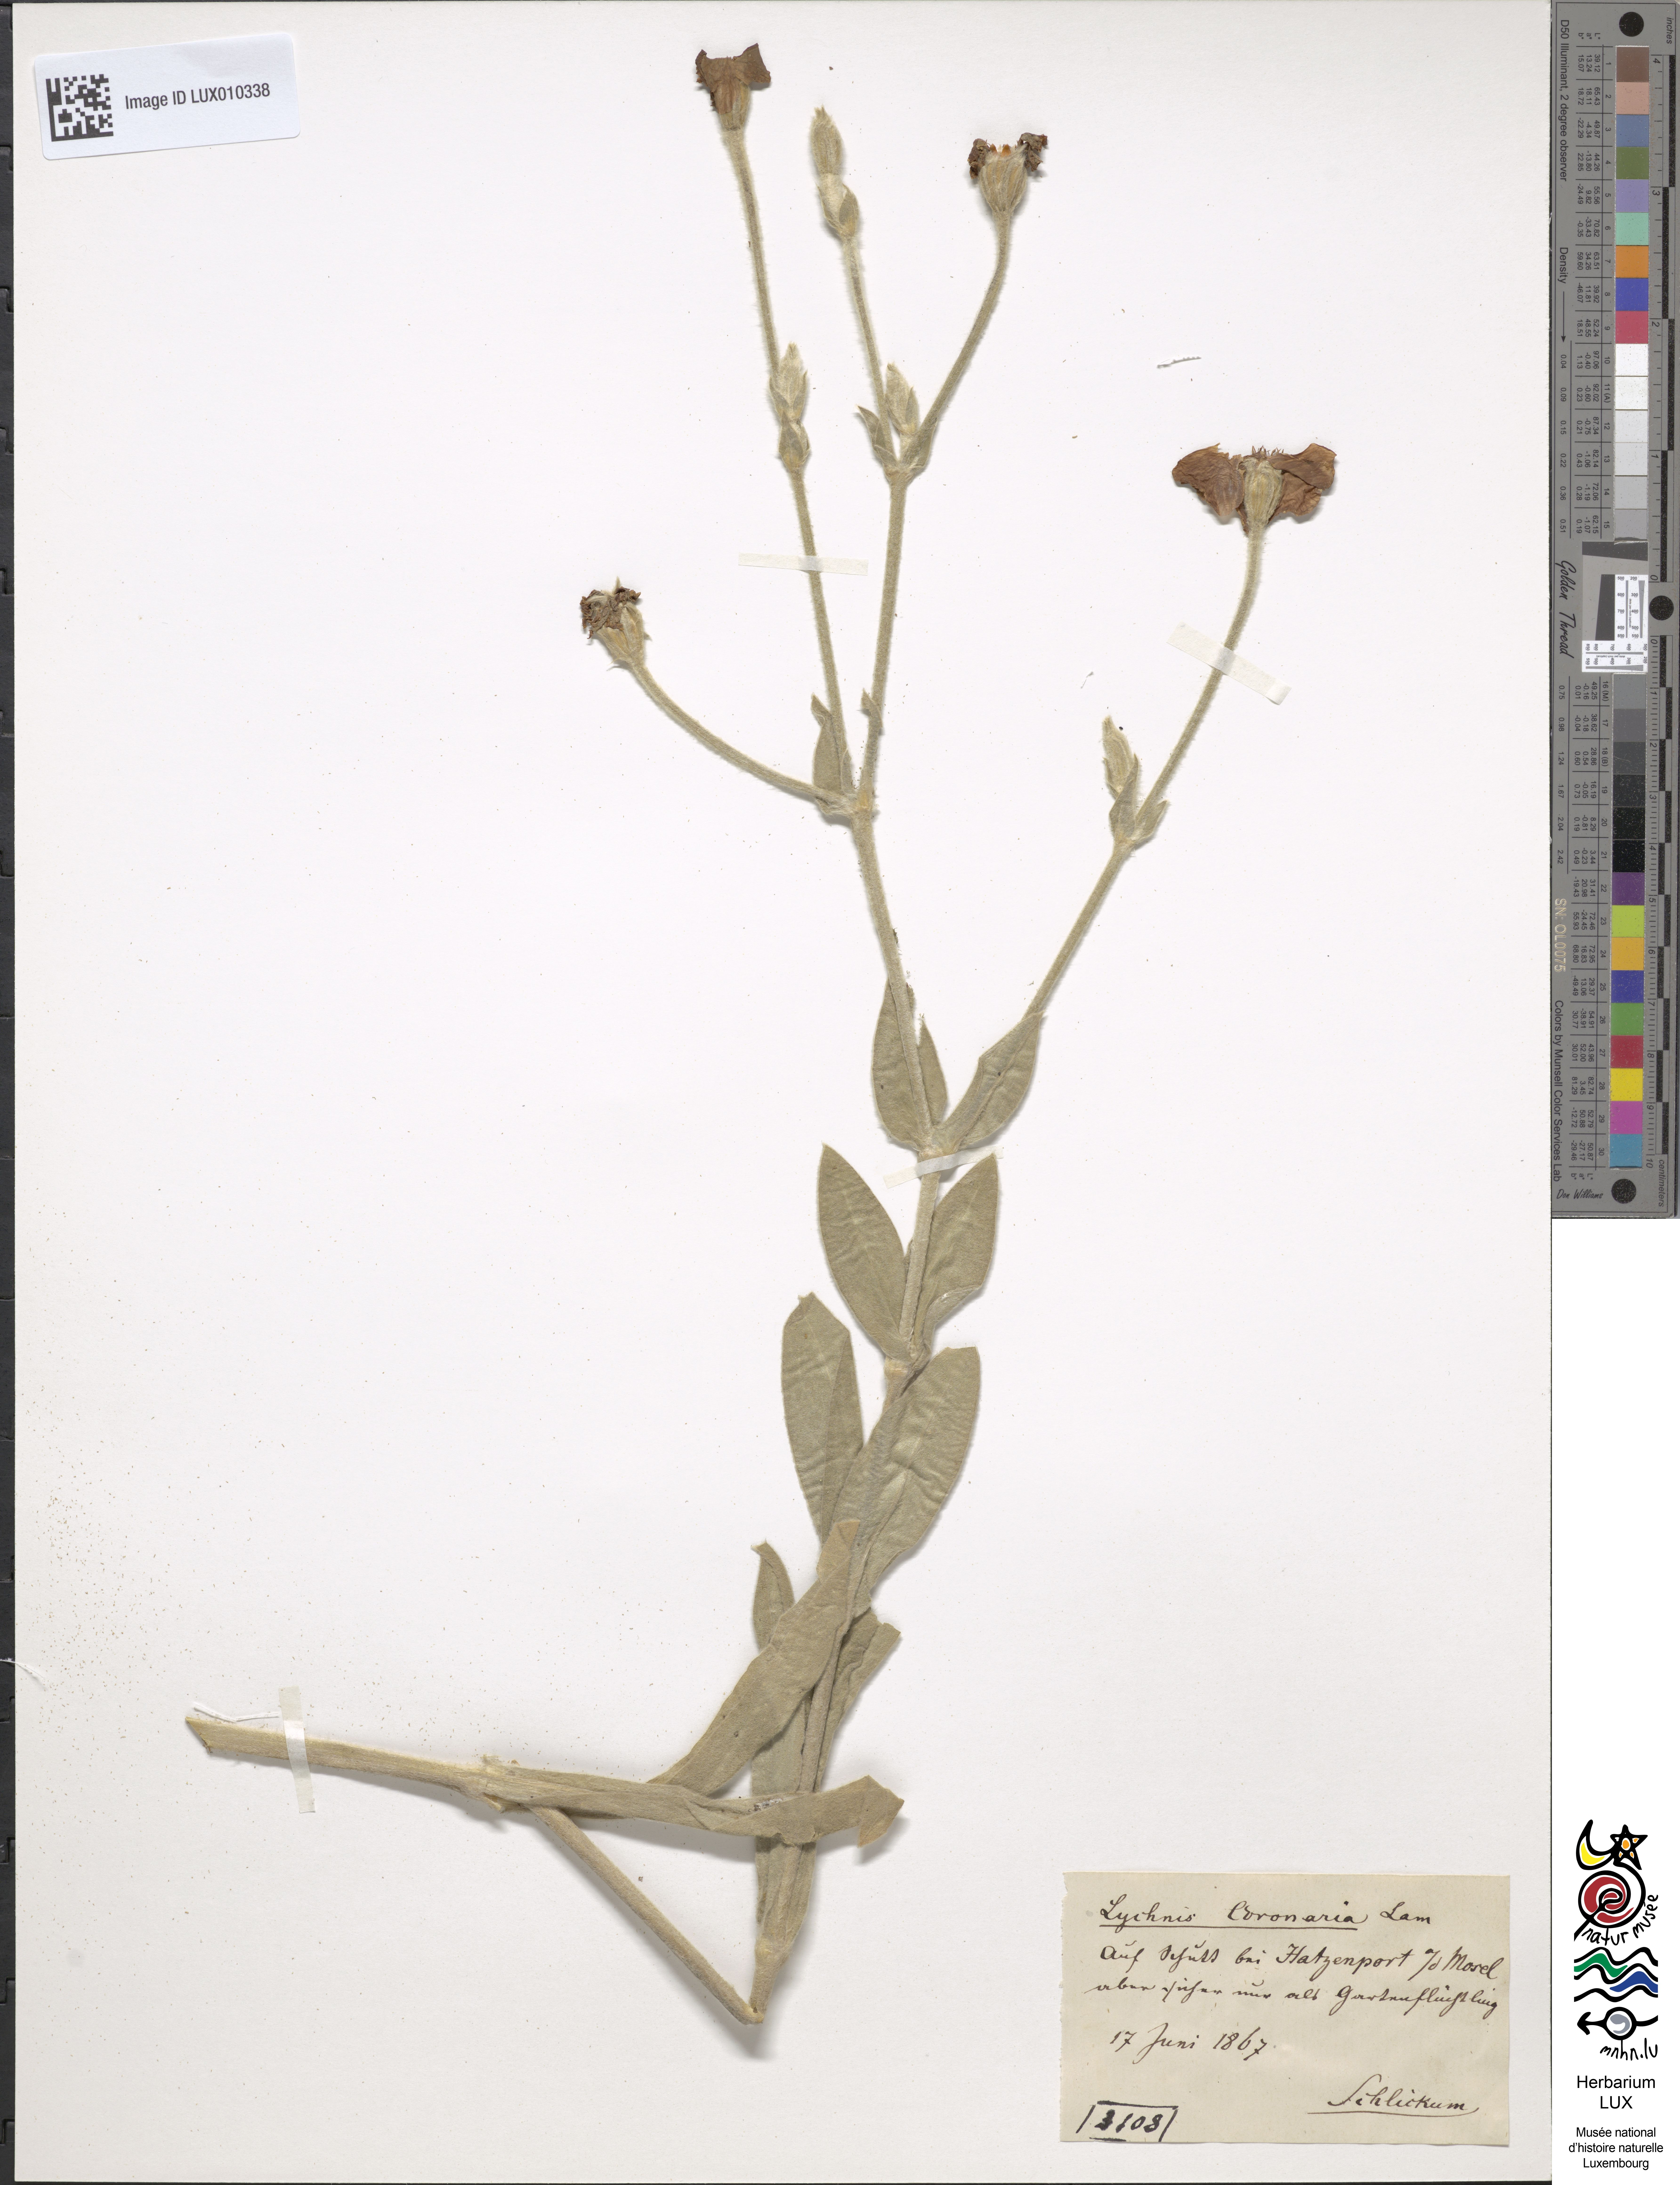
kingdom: Plantae
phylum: Tracheophyta
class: Magnoliopsida
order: Caryophyllales
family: Caryophyllaceae
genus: Silene
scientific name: Silene coronaria
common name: Rose campion
